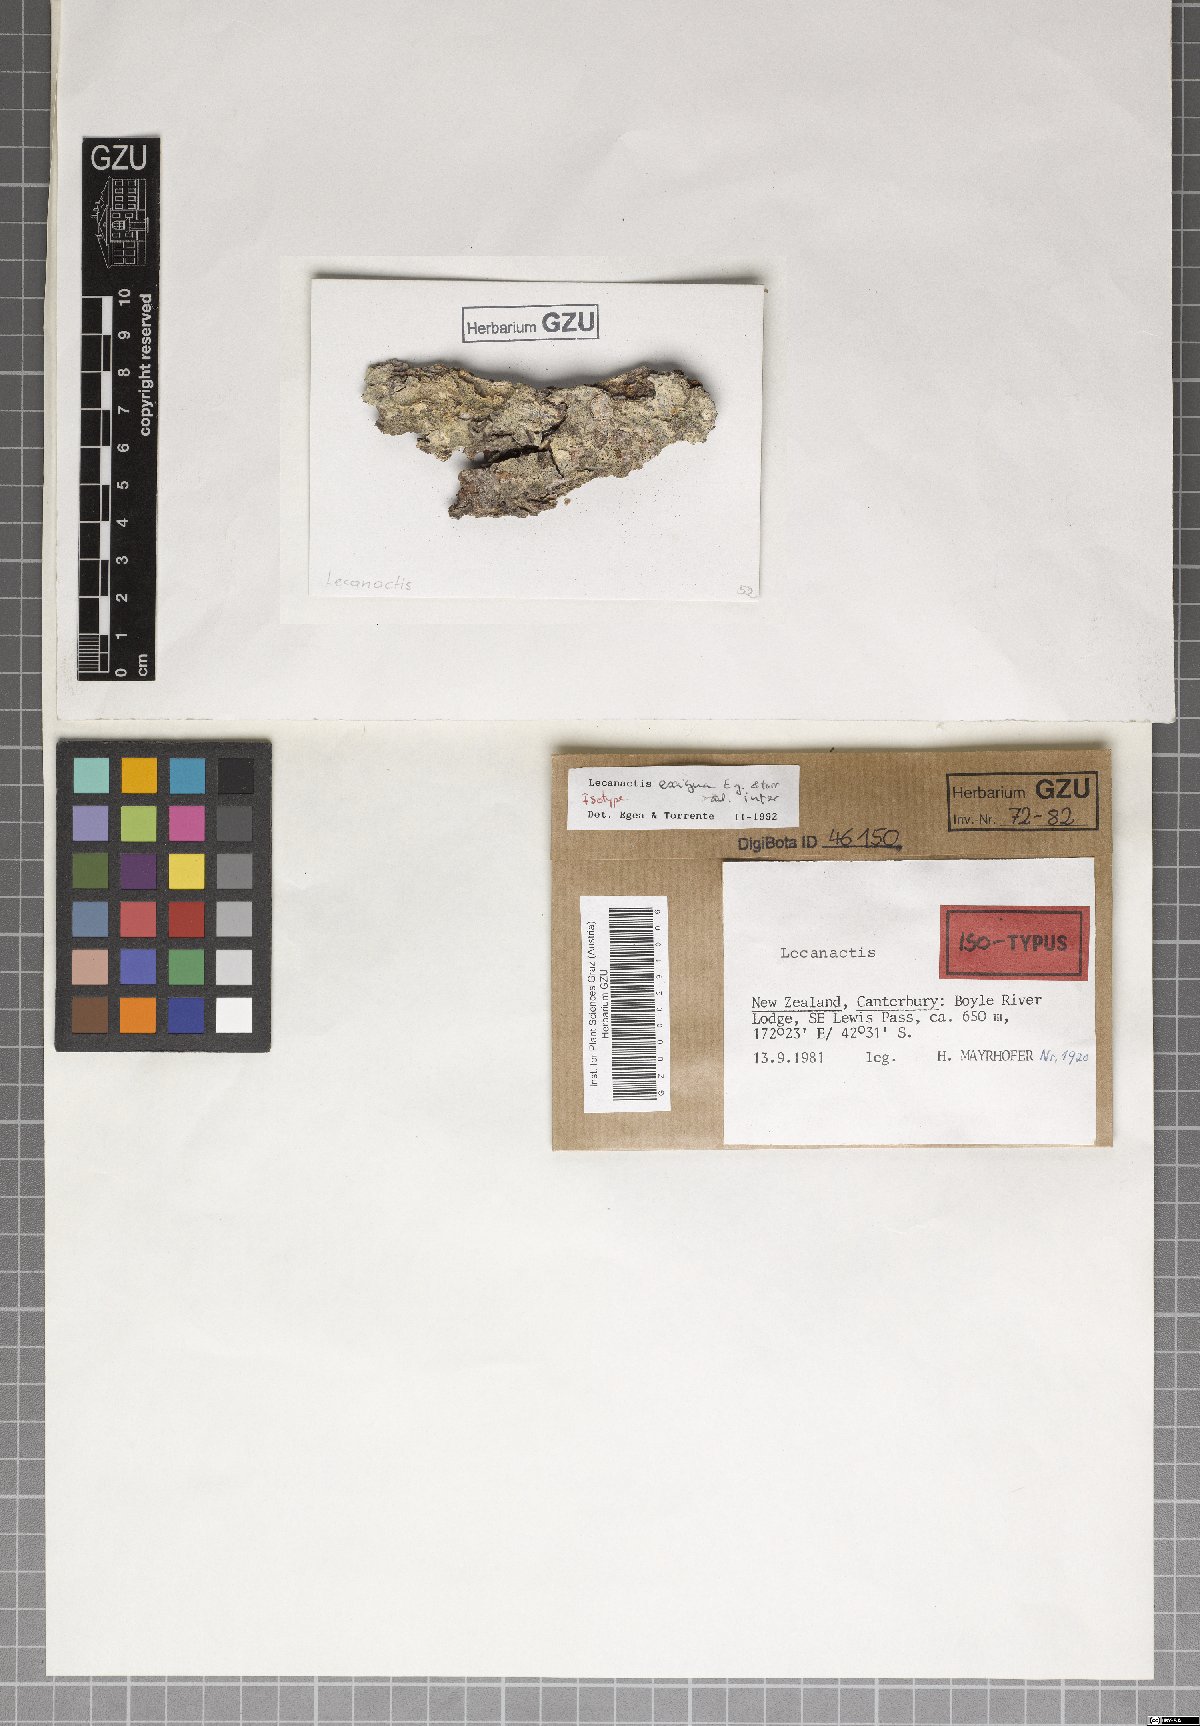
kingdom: Fungi
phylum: Ascomycota
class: Arthoniomycetes
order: Arthoniales
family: Roccellaceae
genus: Lecanactis
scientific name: Lecanactis exigua
